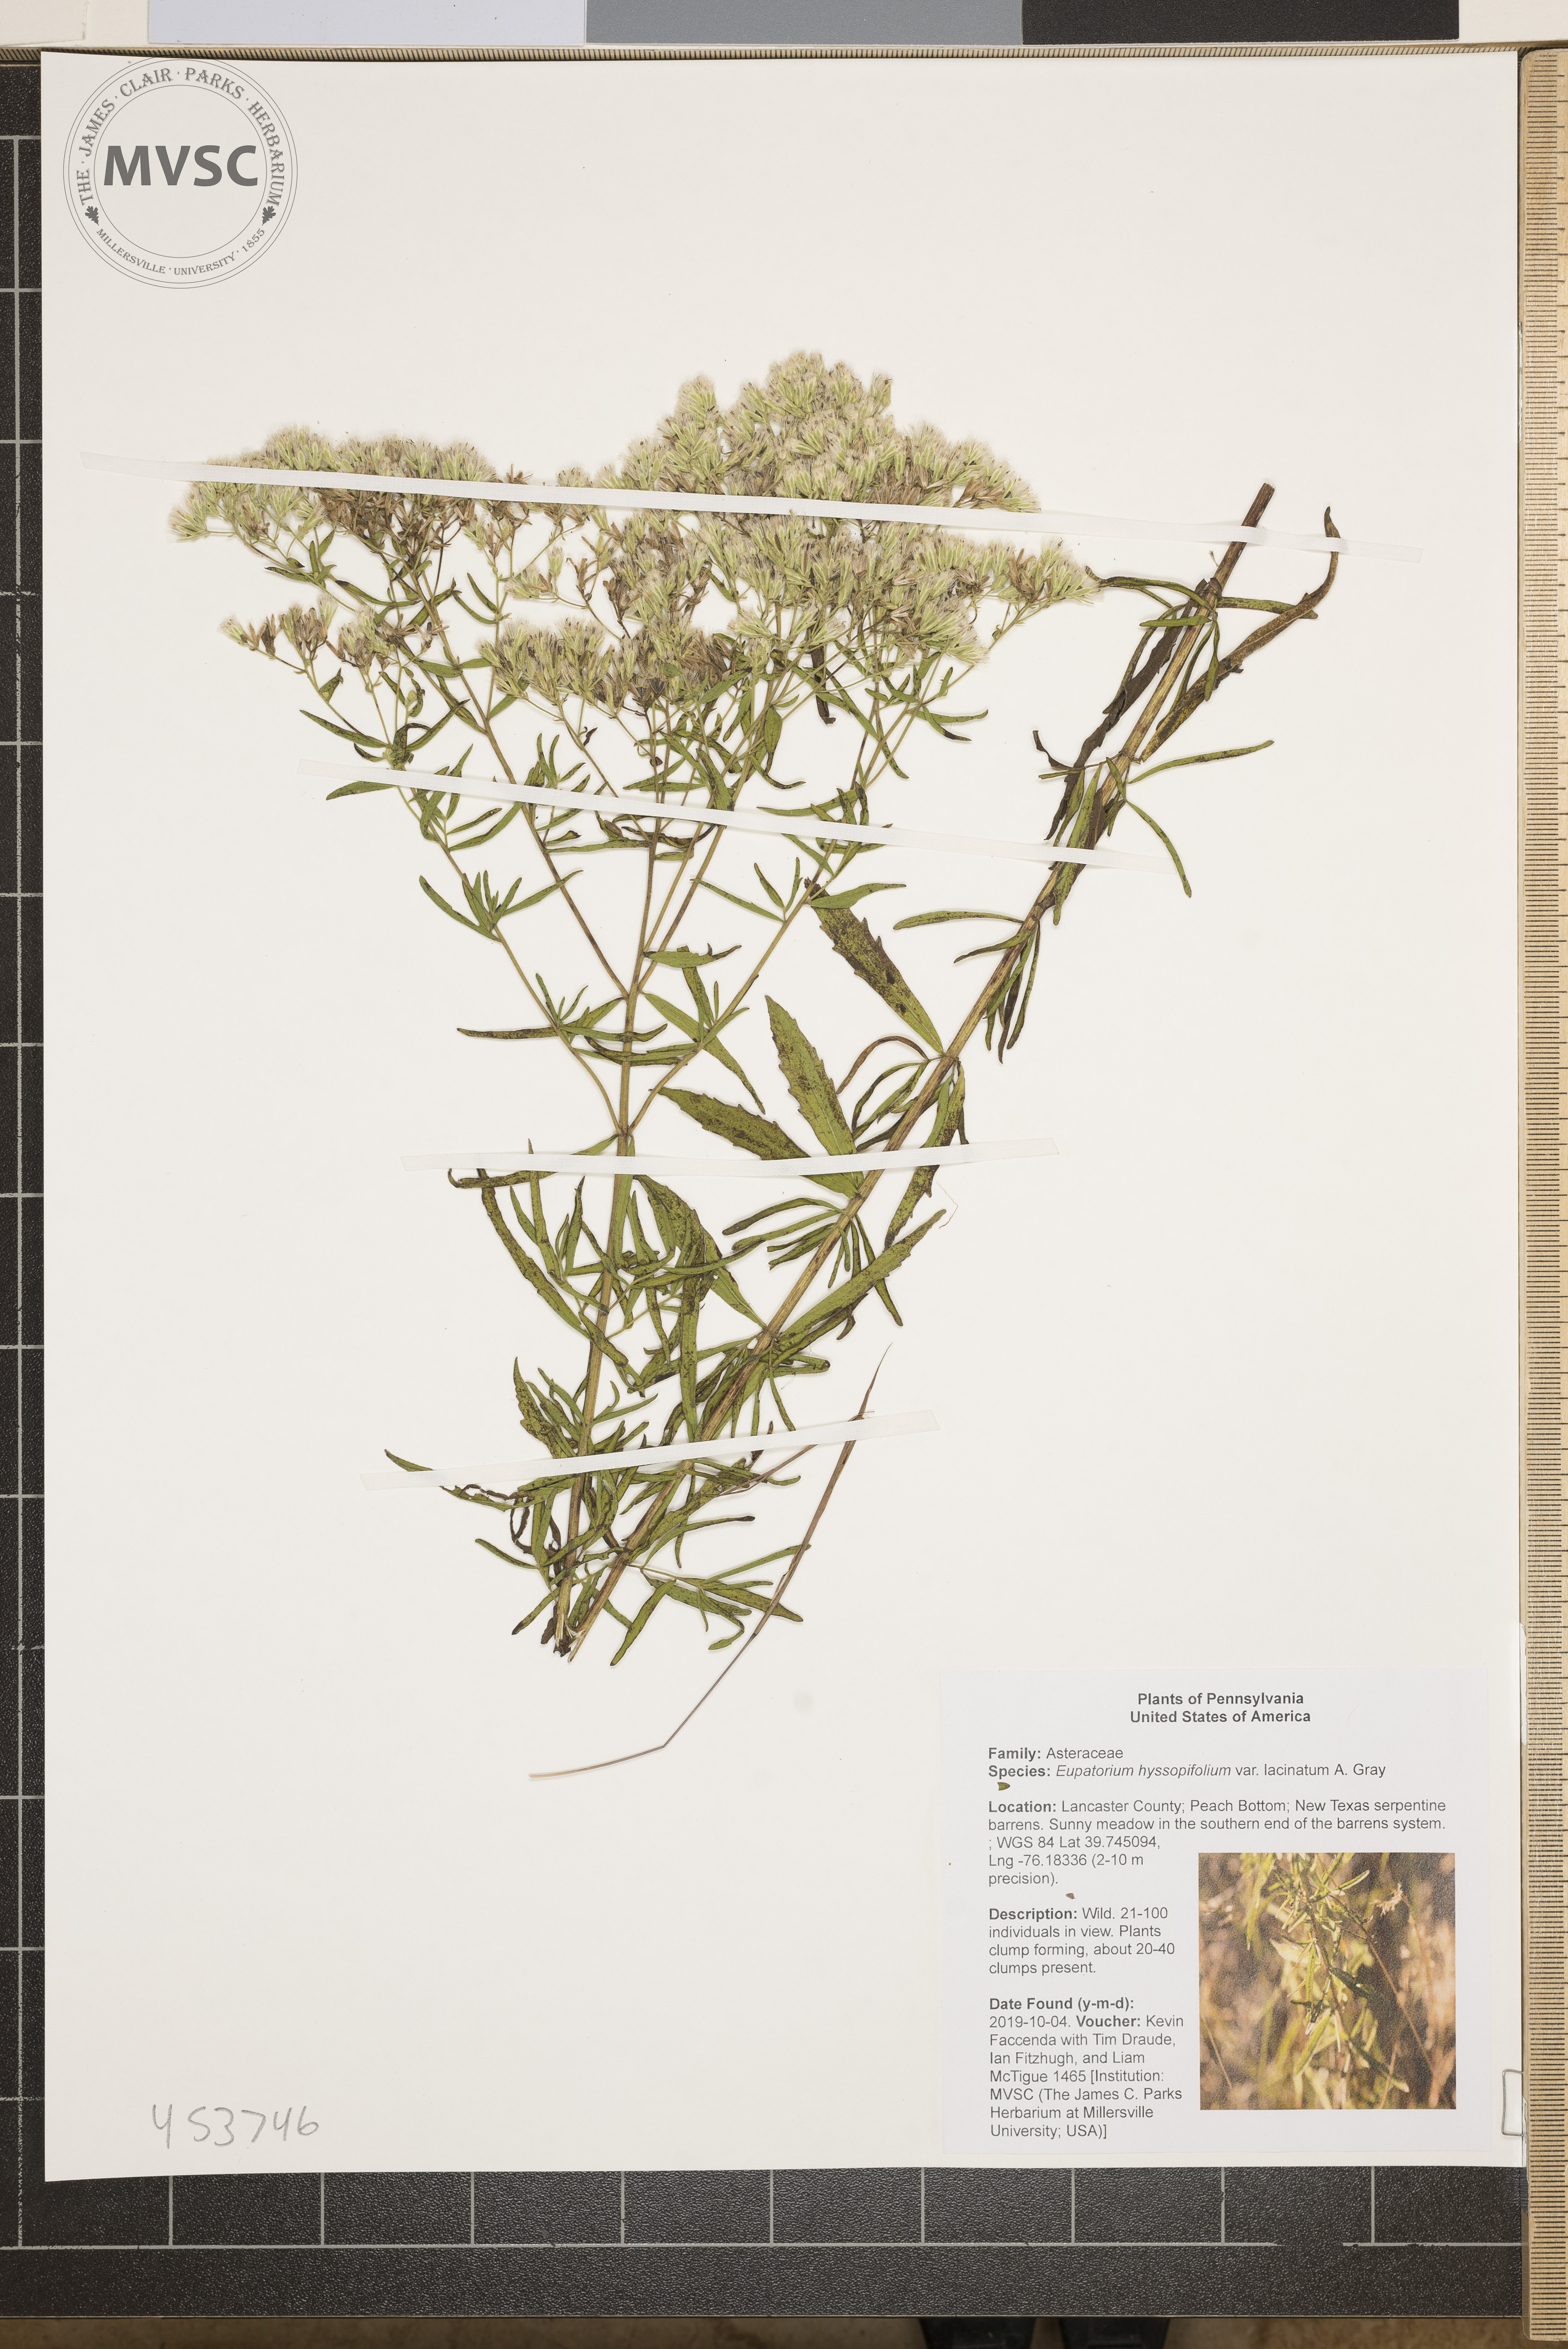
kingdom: Plantae
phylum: Tracheophyta
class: Magnoliopsida
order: Asterales
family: Asteraceae
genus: Eupatorium
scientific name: Eupatorium hyssopifolium
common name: Hyssop-leaf thoroughwort
